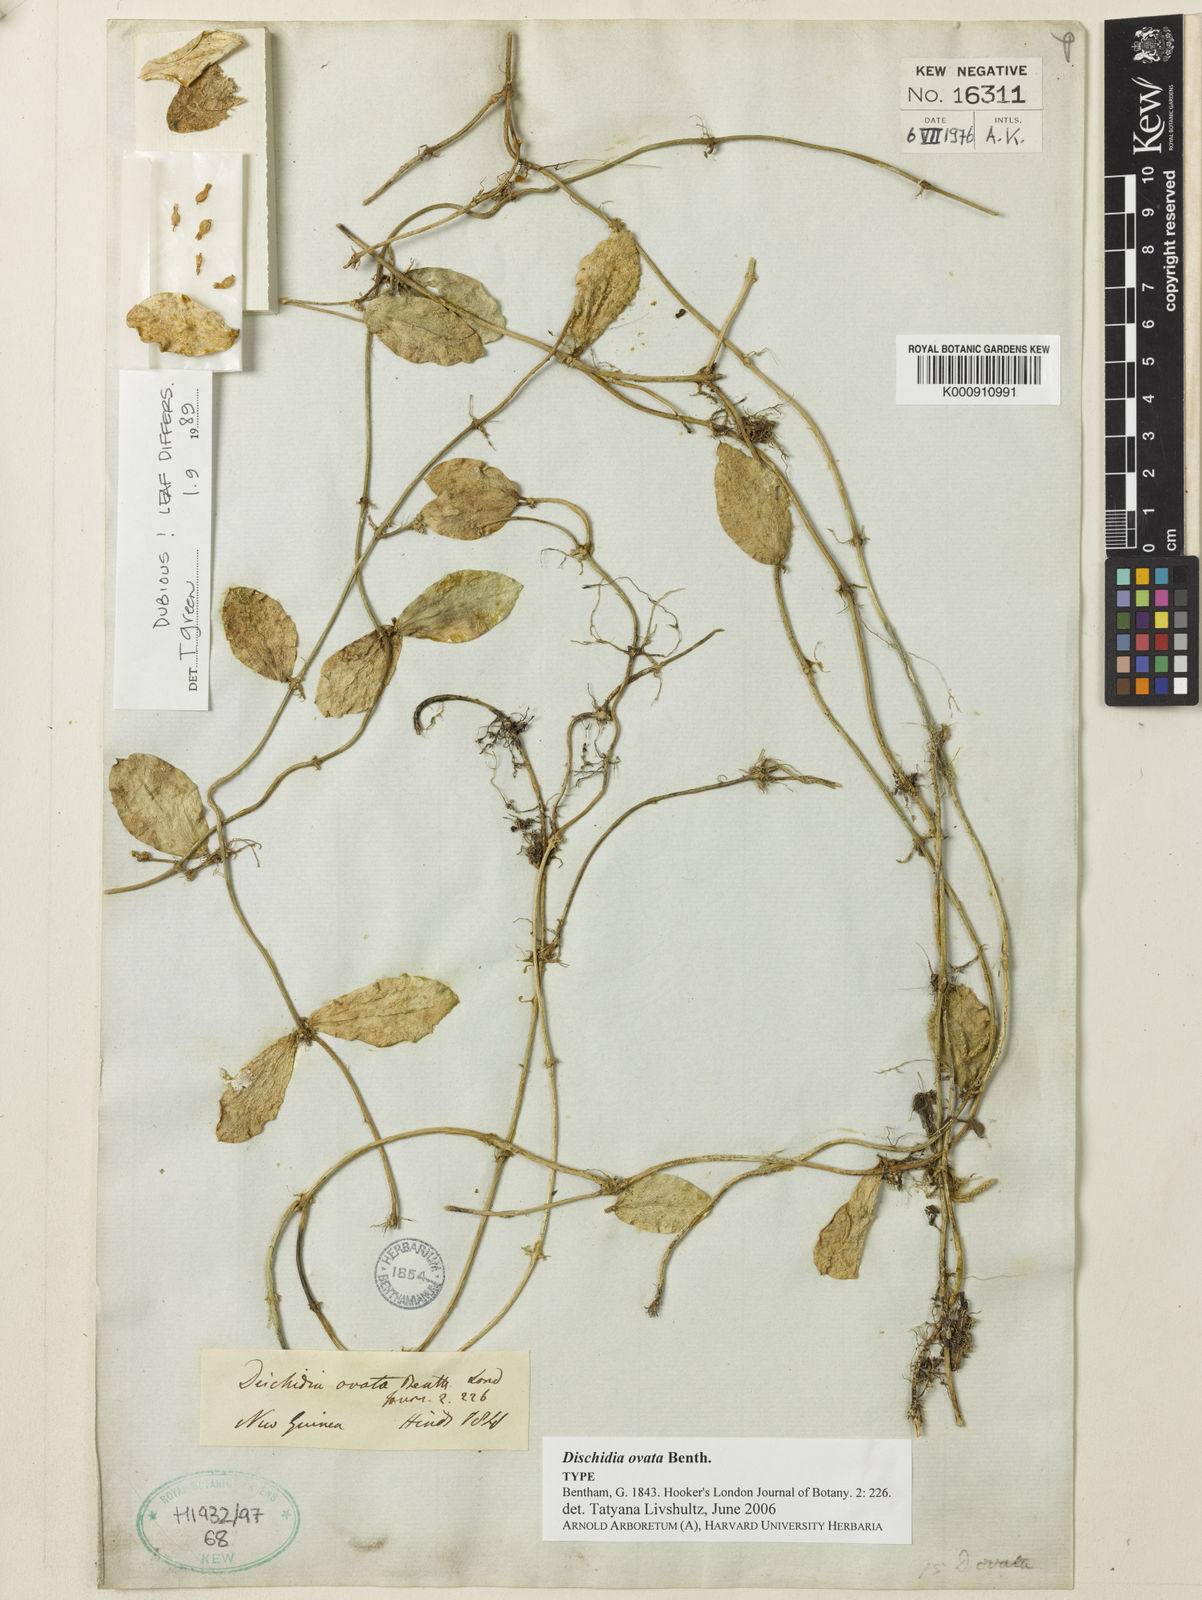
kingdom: Plantae
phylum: Tracheophyta
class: Magnoliopsida
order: Gentianales
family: Apocynaceae
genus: Dischidia
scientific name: Dischidia ovata
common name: Watermelon dischidia
